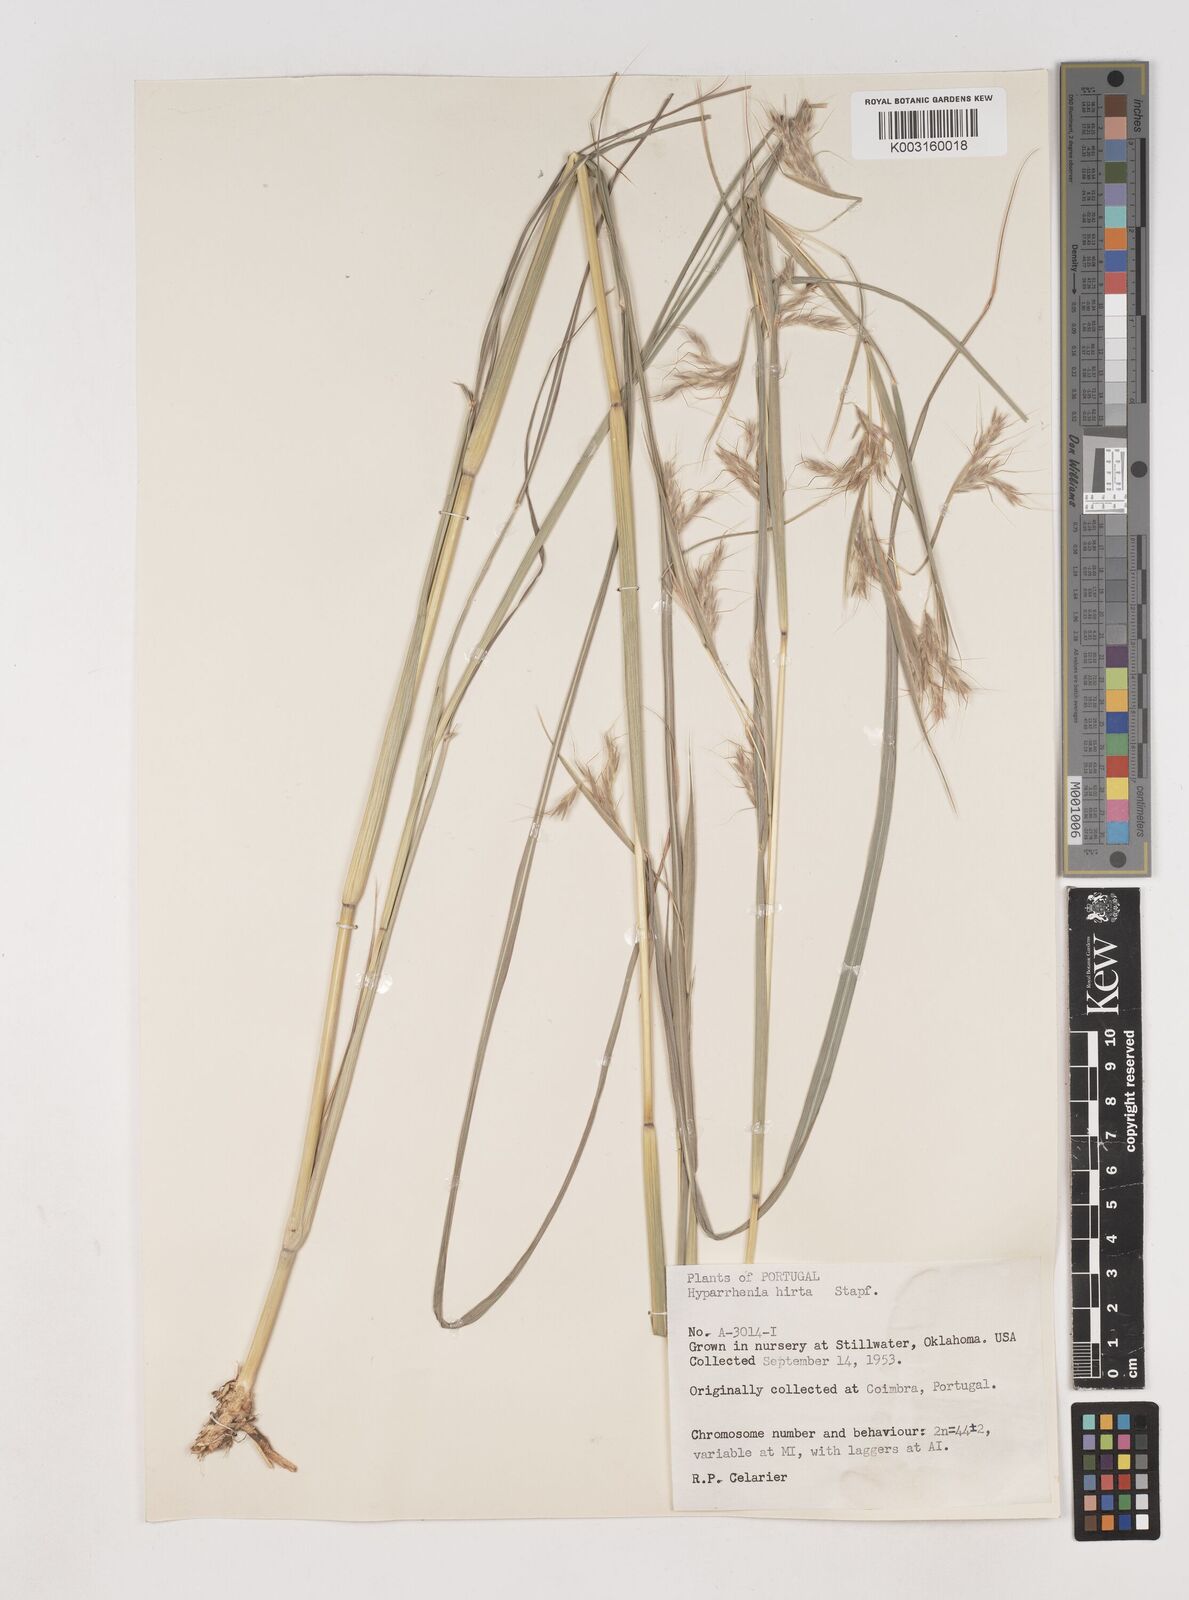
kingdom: Plantae
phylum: Tracheophyta
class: Liliopsida
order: Poales
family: Poaceae
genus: Hyparrhenia
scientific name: Hyparrhenia hirta
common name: Thatching grass
